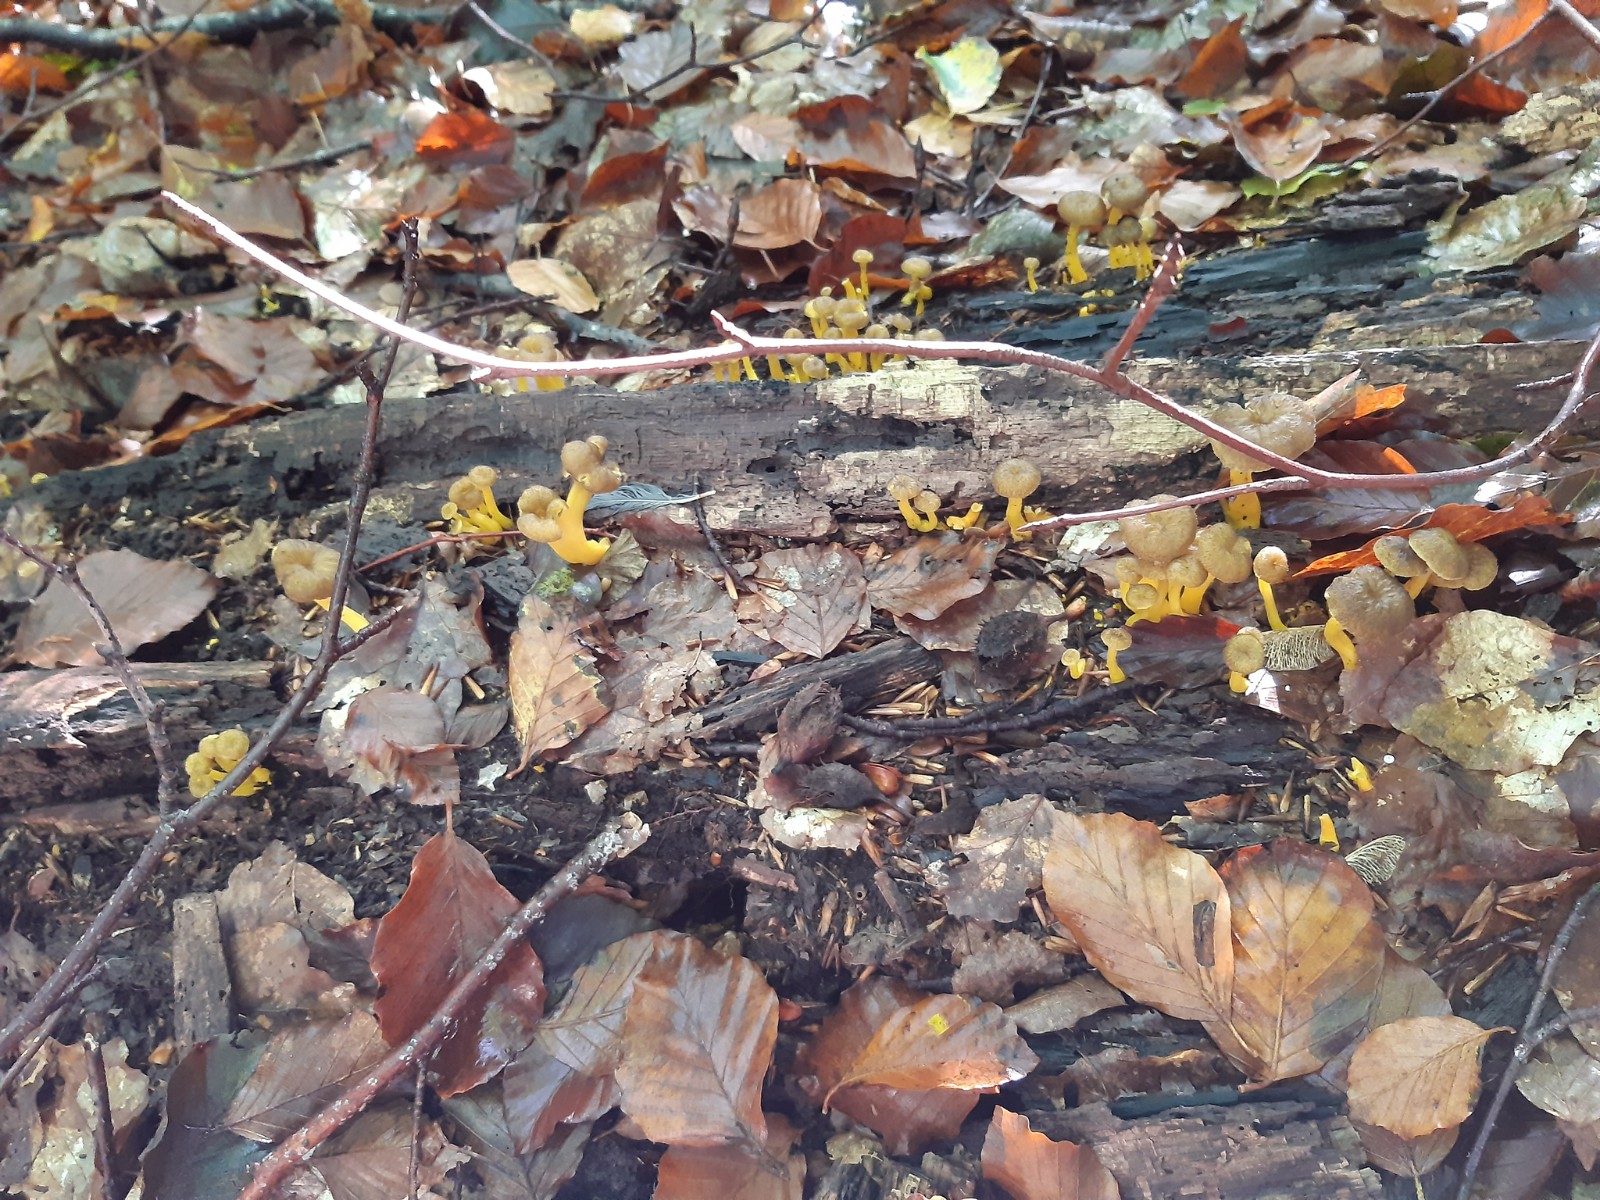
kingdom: Fungi
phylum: Basidiomycota
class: Agaricomycetes
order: Cantharellales
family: Hydnaceae
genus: Craterellus
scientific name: Craterellus tubaeformis
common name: tragt-kantarel
